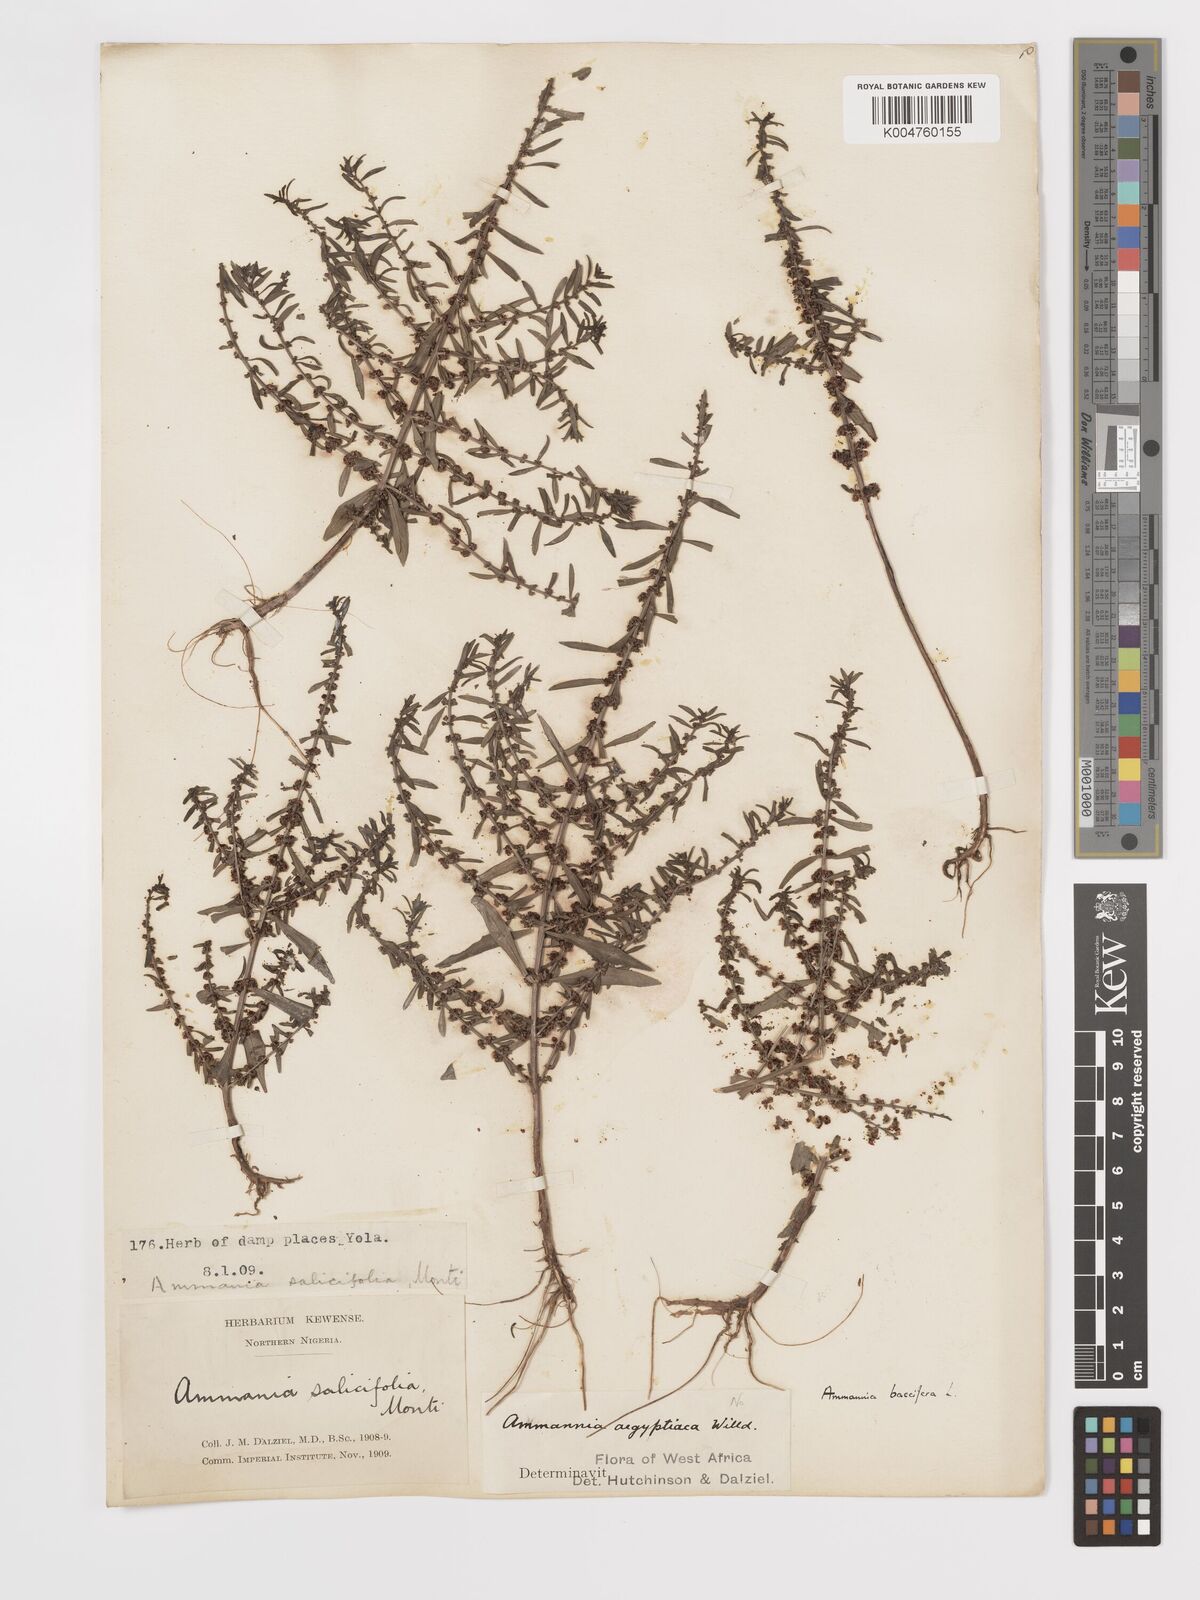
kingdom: Plantae
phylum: Tracheophyta
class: Magnoliopsida
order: Myrtales
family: Lythraceae
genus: Ammannia
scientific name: Ammannia
